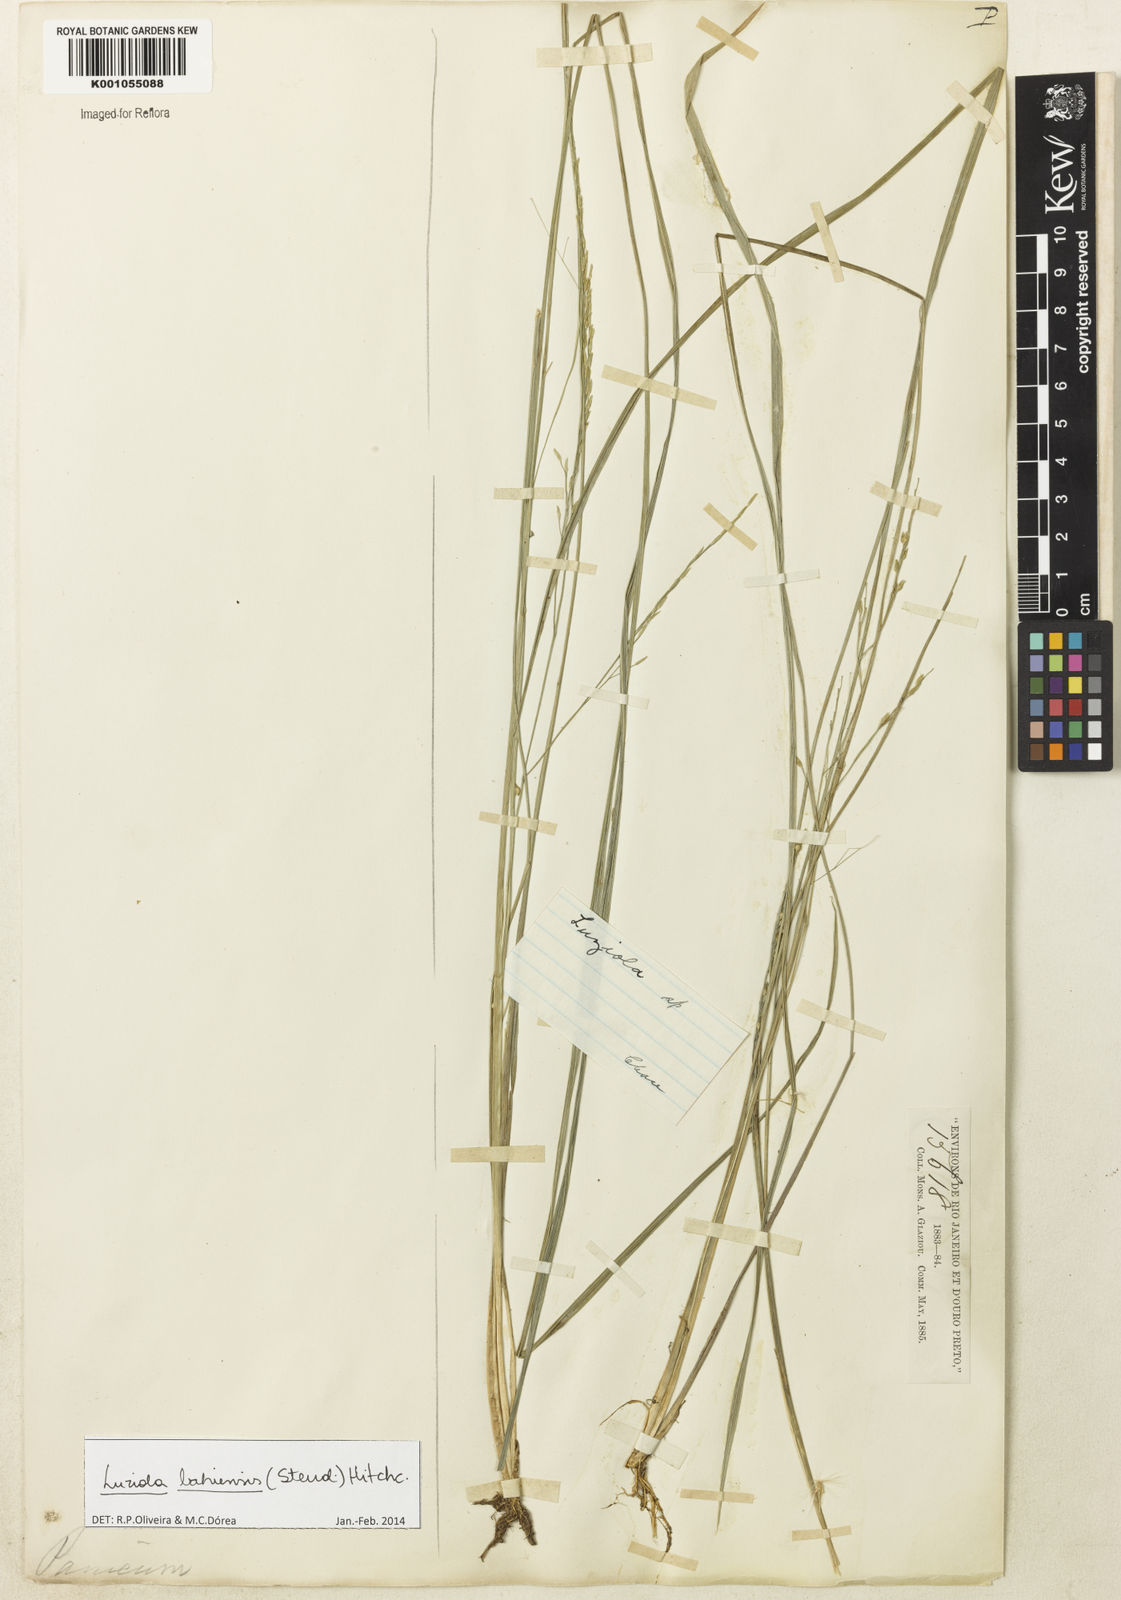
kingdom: Plantae
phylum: Tracheophyta
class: Liliopsida
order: Poales
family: Poaceae
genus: Luziola
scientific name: Luziola bahiensis
